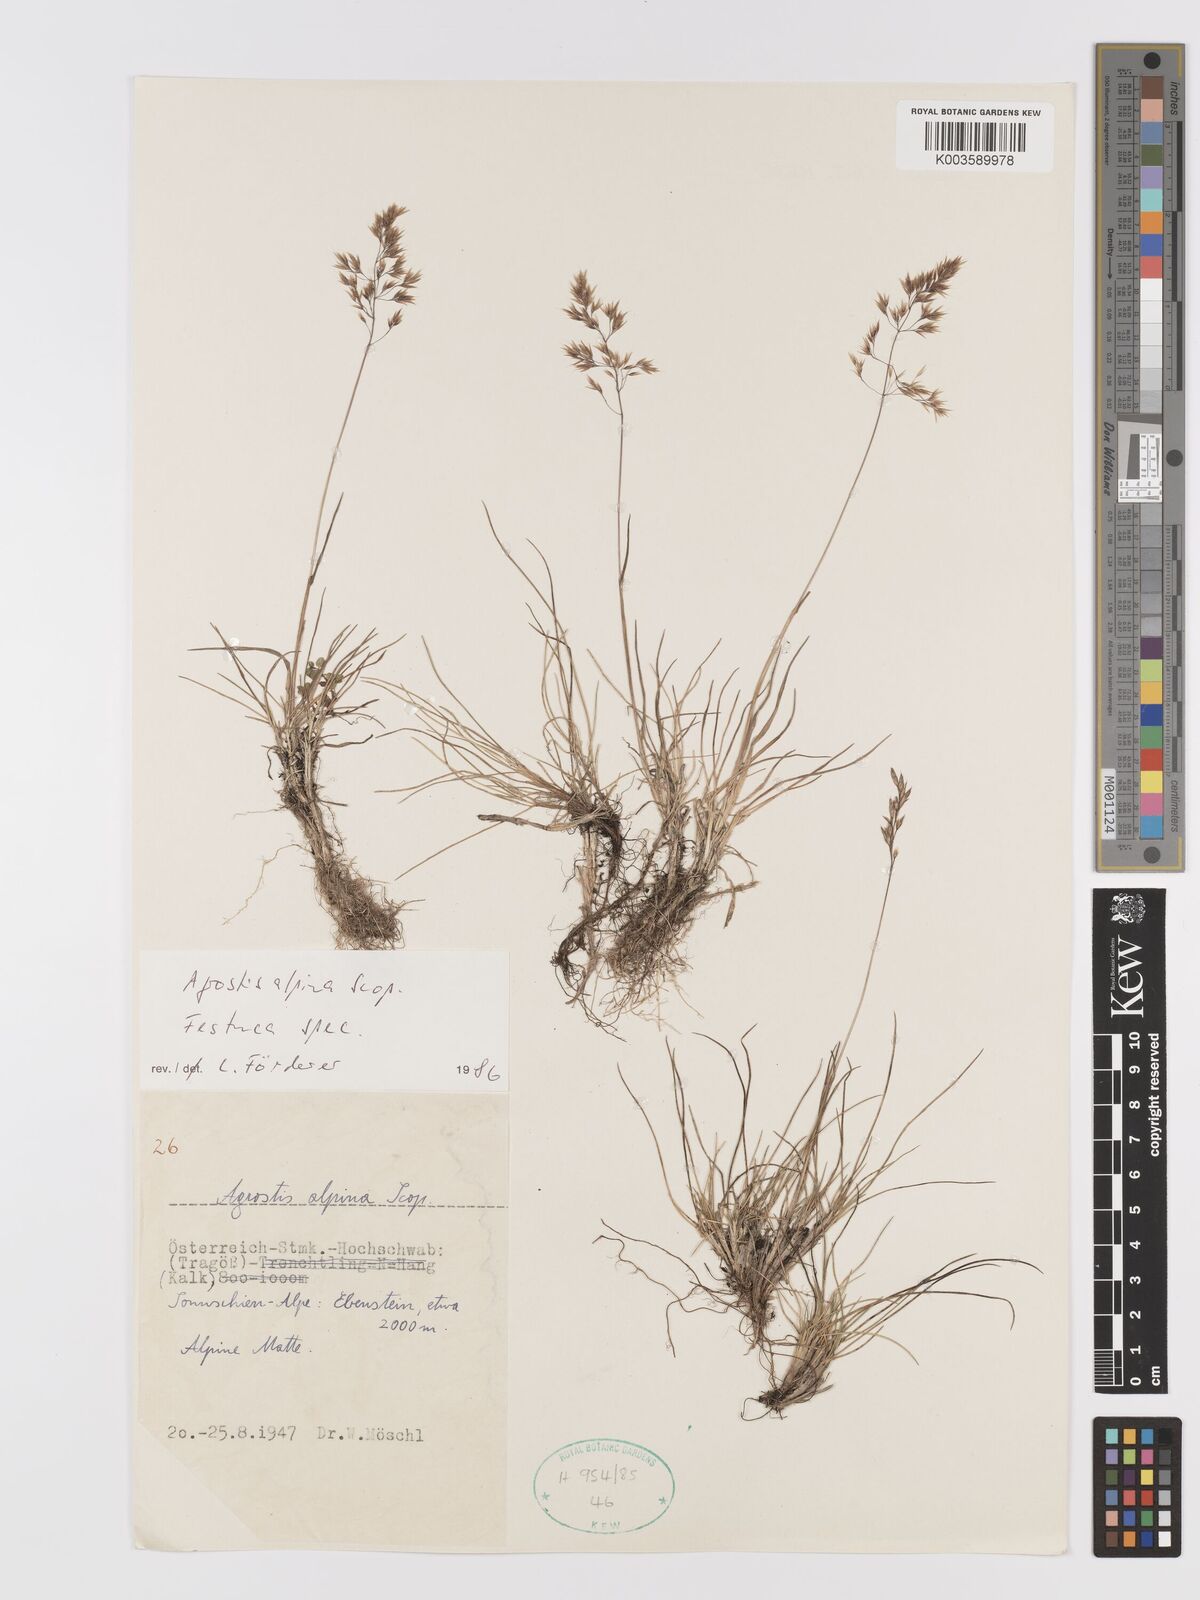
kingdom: Plantae
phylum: Tracheophyta
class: Liliopsida
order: Poales
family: Poaceae
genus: Alpagrostis
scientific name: Alpagrostis alpina
